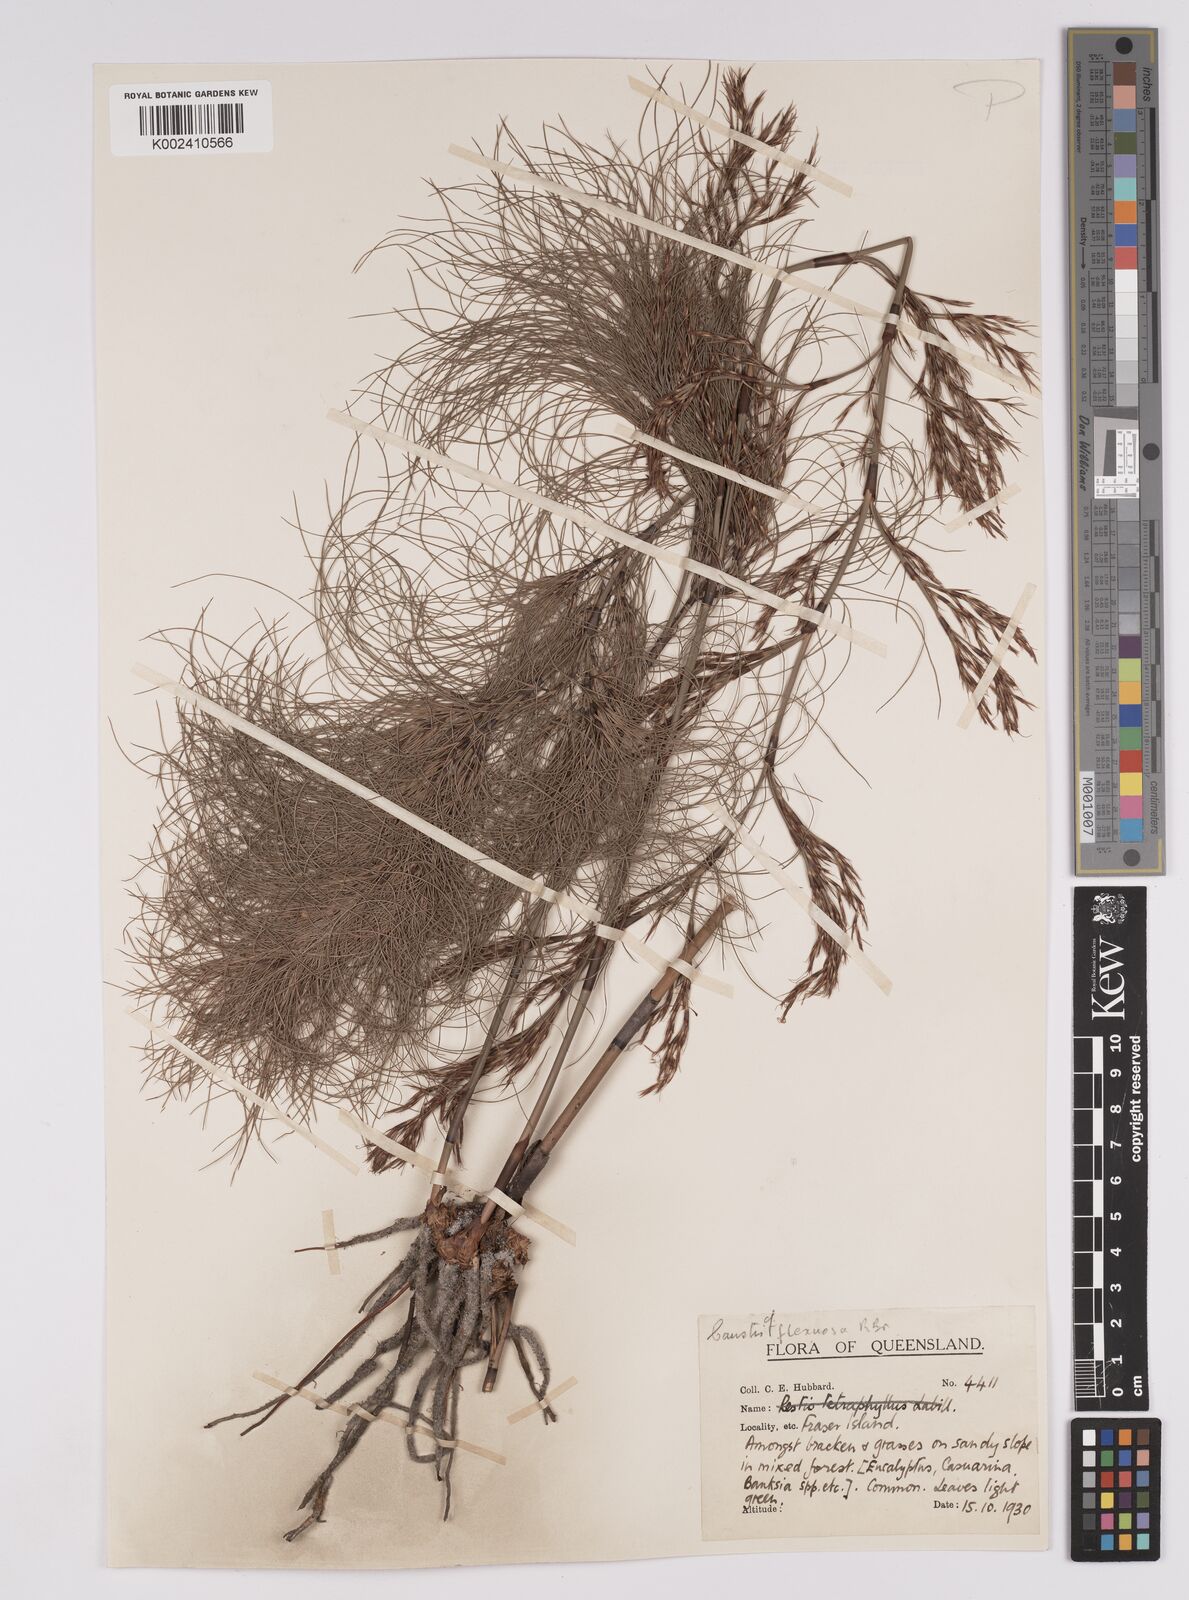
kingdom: Plantae
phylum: Tracheophyta
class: Liliopsida
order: Poales
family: Cyperaceae
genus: Caustis
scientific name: Caustis blakei
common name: Foxtail-fern
